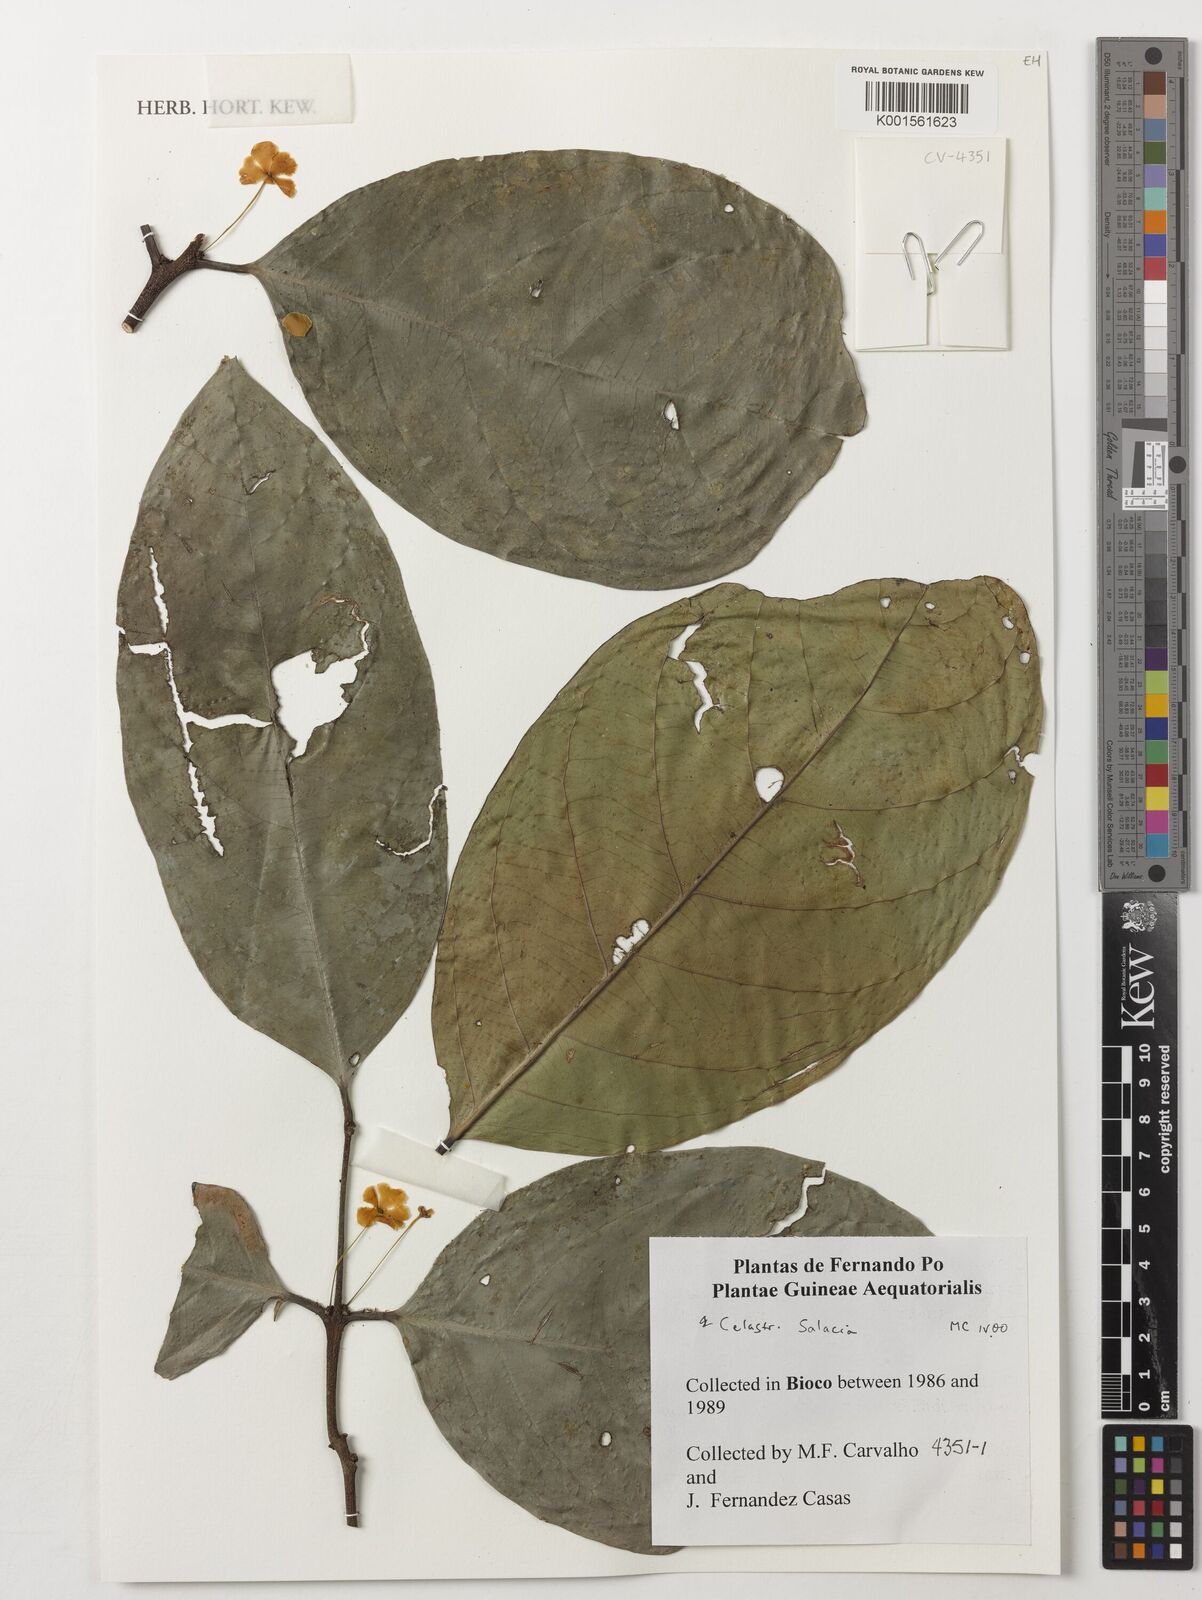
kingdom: Plantae
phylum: Tracheophyta
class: Magnoliopsida
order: Celastrales
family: Celastraceae
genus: Salacia
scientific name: Salacia
